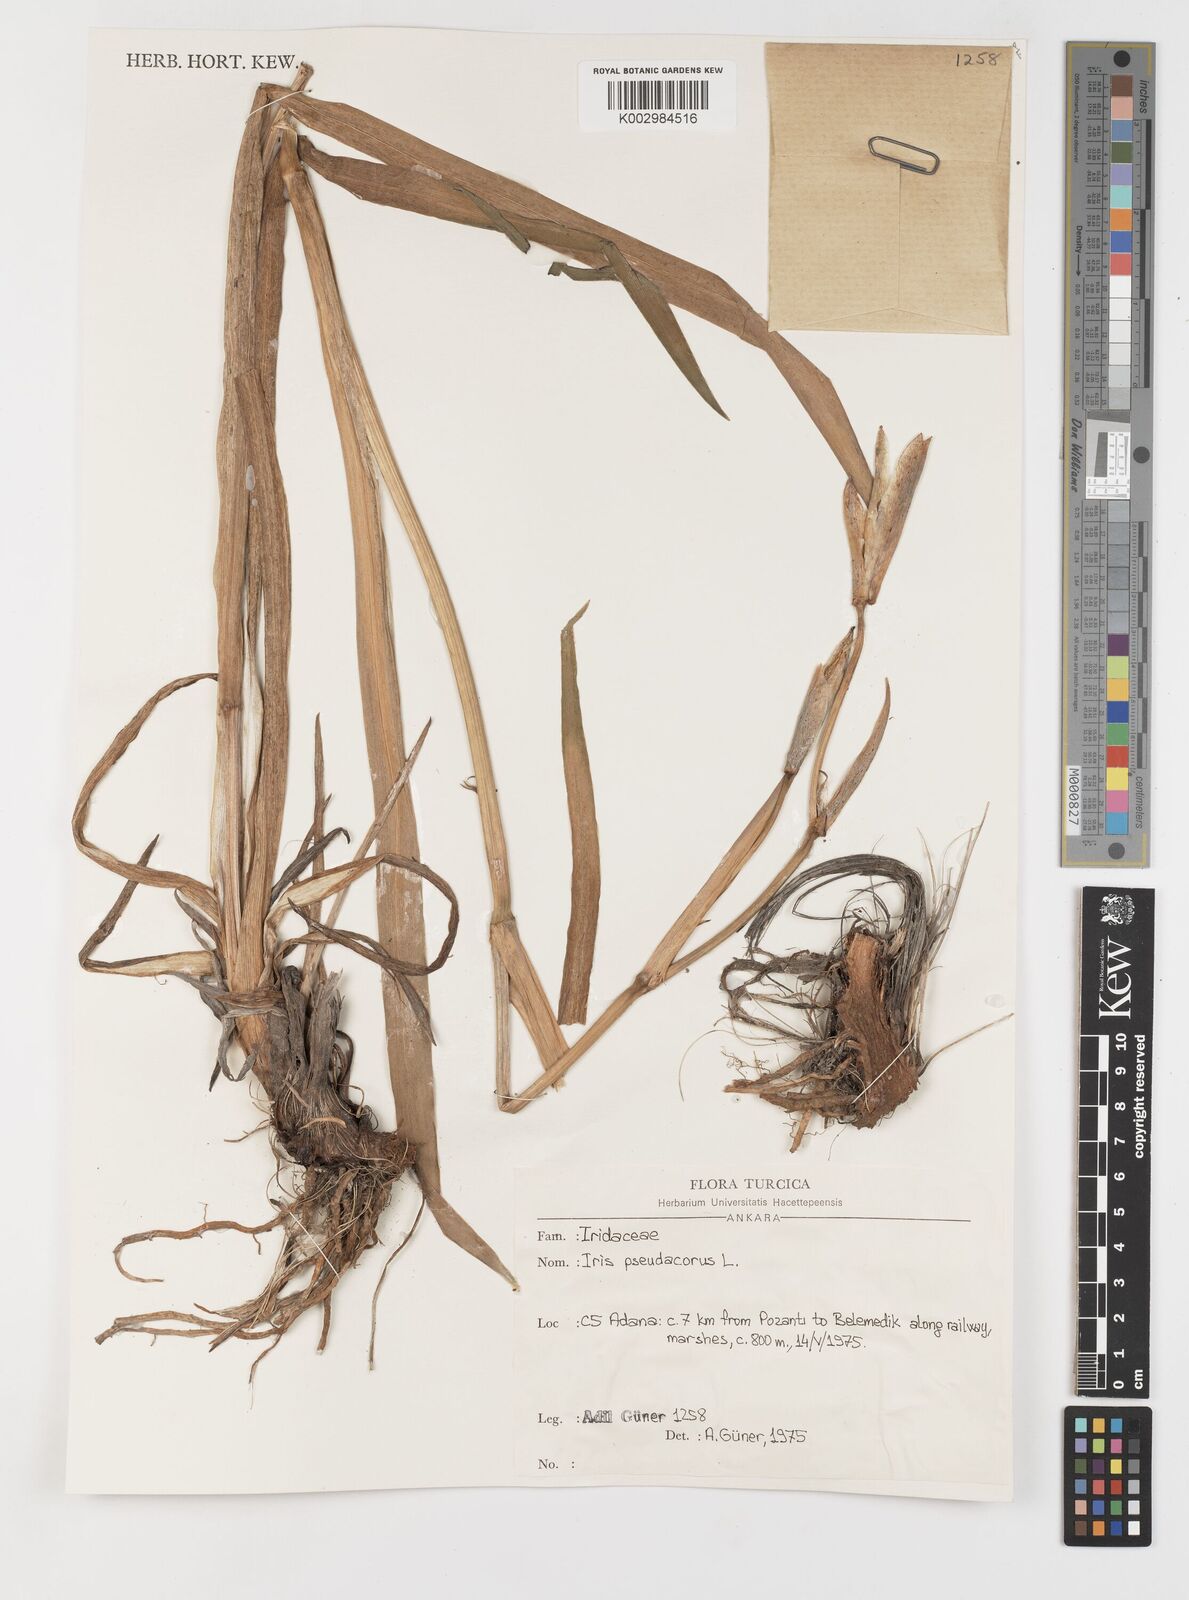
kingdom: Plantae
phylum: Tracheophyta
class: Liliopsida
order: Asparagales
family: Iridaceae
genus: Iris
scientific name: Iris pseudacorus
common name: Yellow flag
